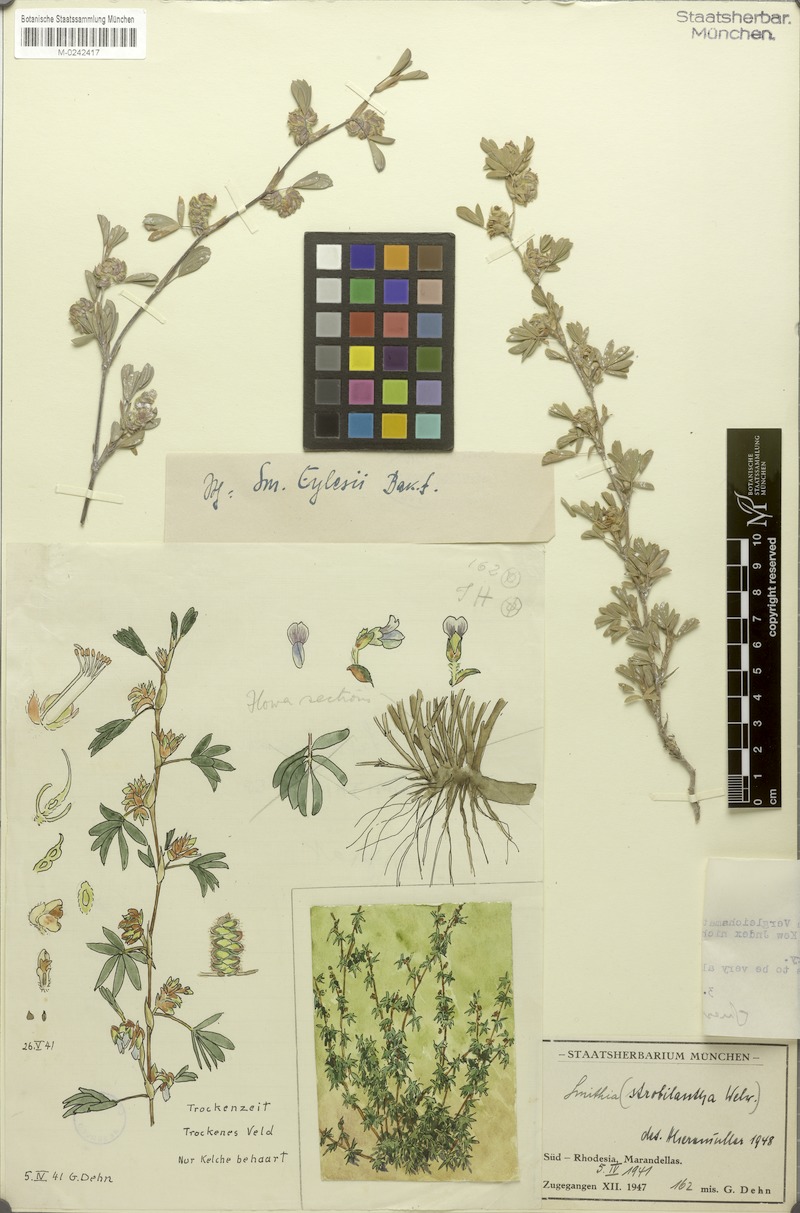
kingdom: Plantae
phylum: Tracheophyta
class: Magnoliopsida
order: Fabales
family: Fabaceae
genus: Smithia
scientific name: Smithia eylesii
